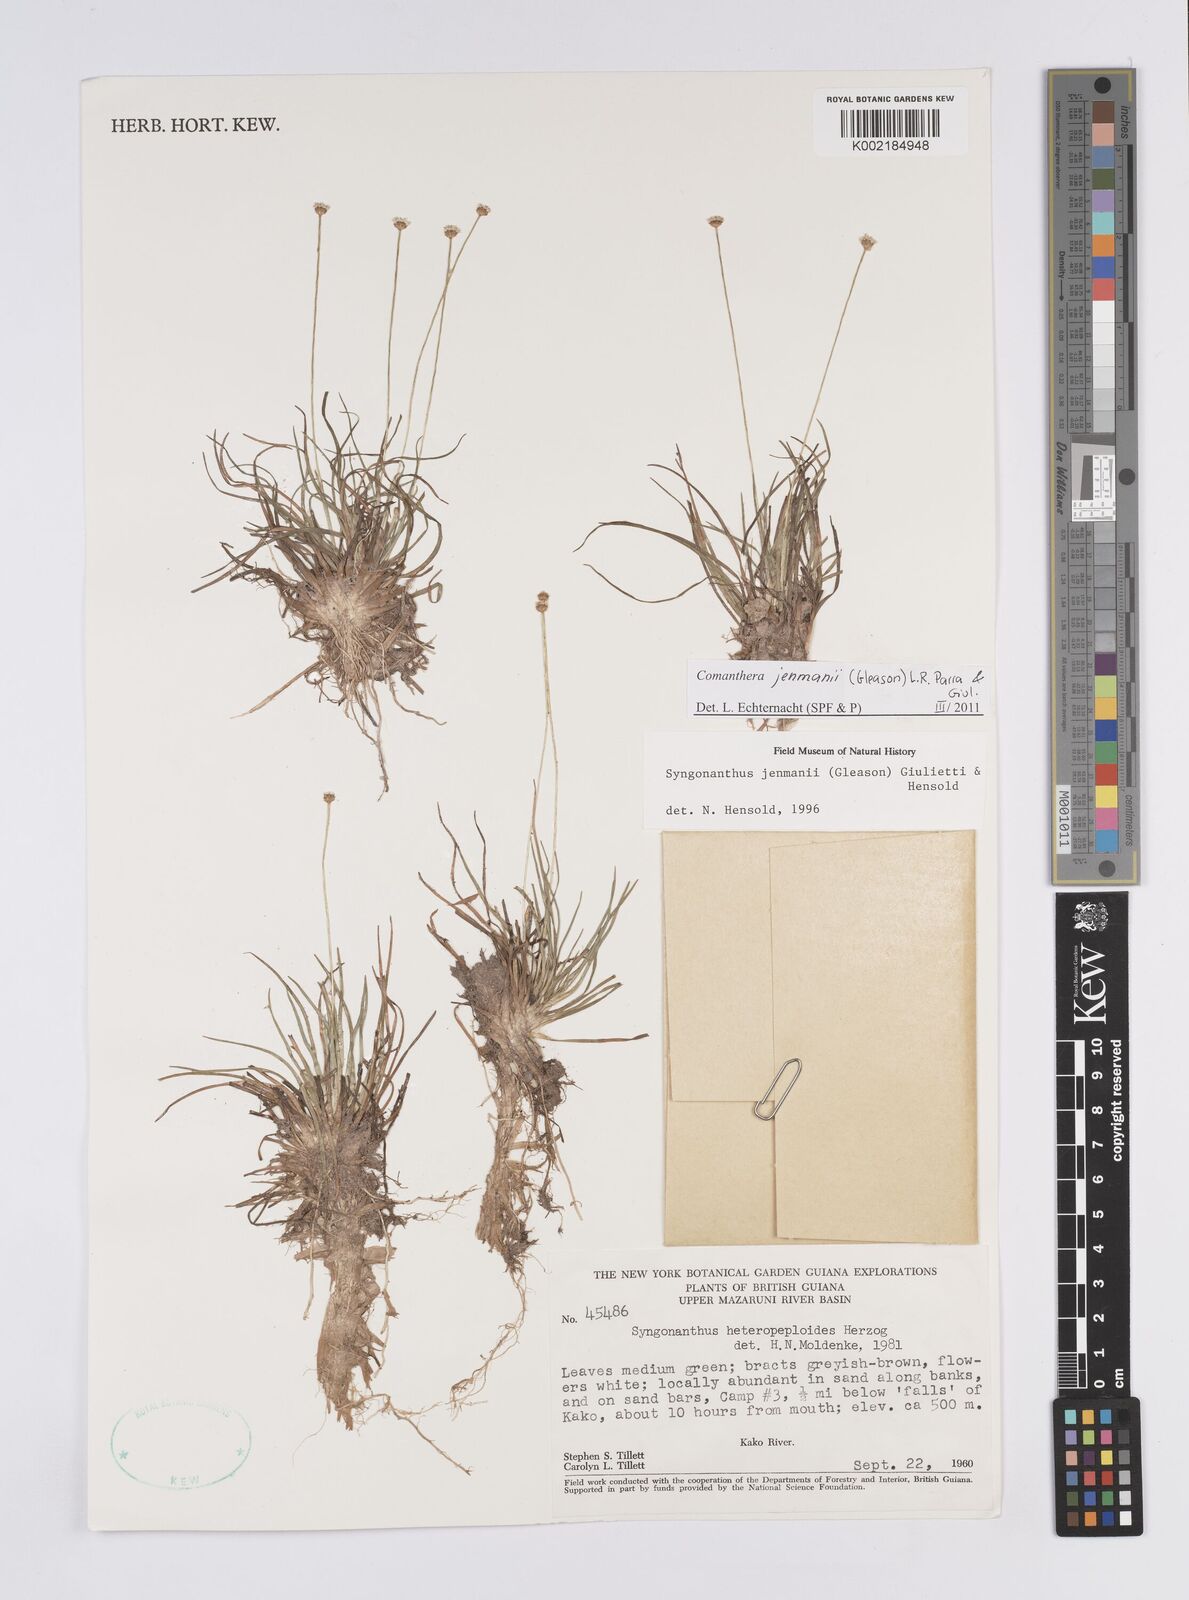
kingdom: Plantae
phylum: Tracheophyta
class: Liliopsida
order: Poales
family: Eriocaulaceae
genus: Comanthera
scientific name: Comanthera jenmanii
